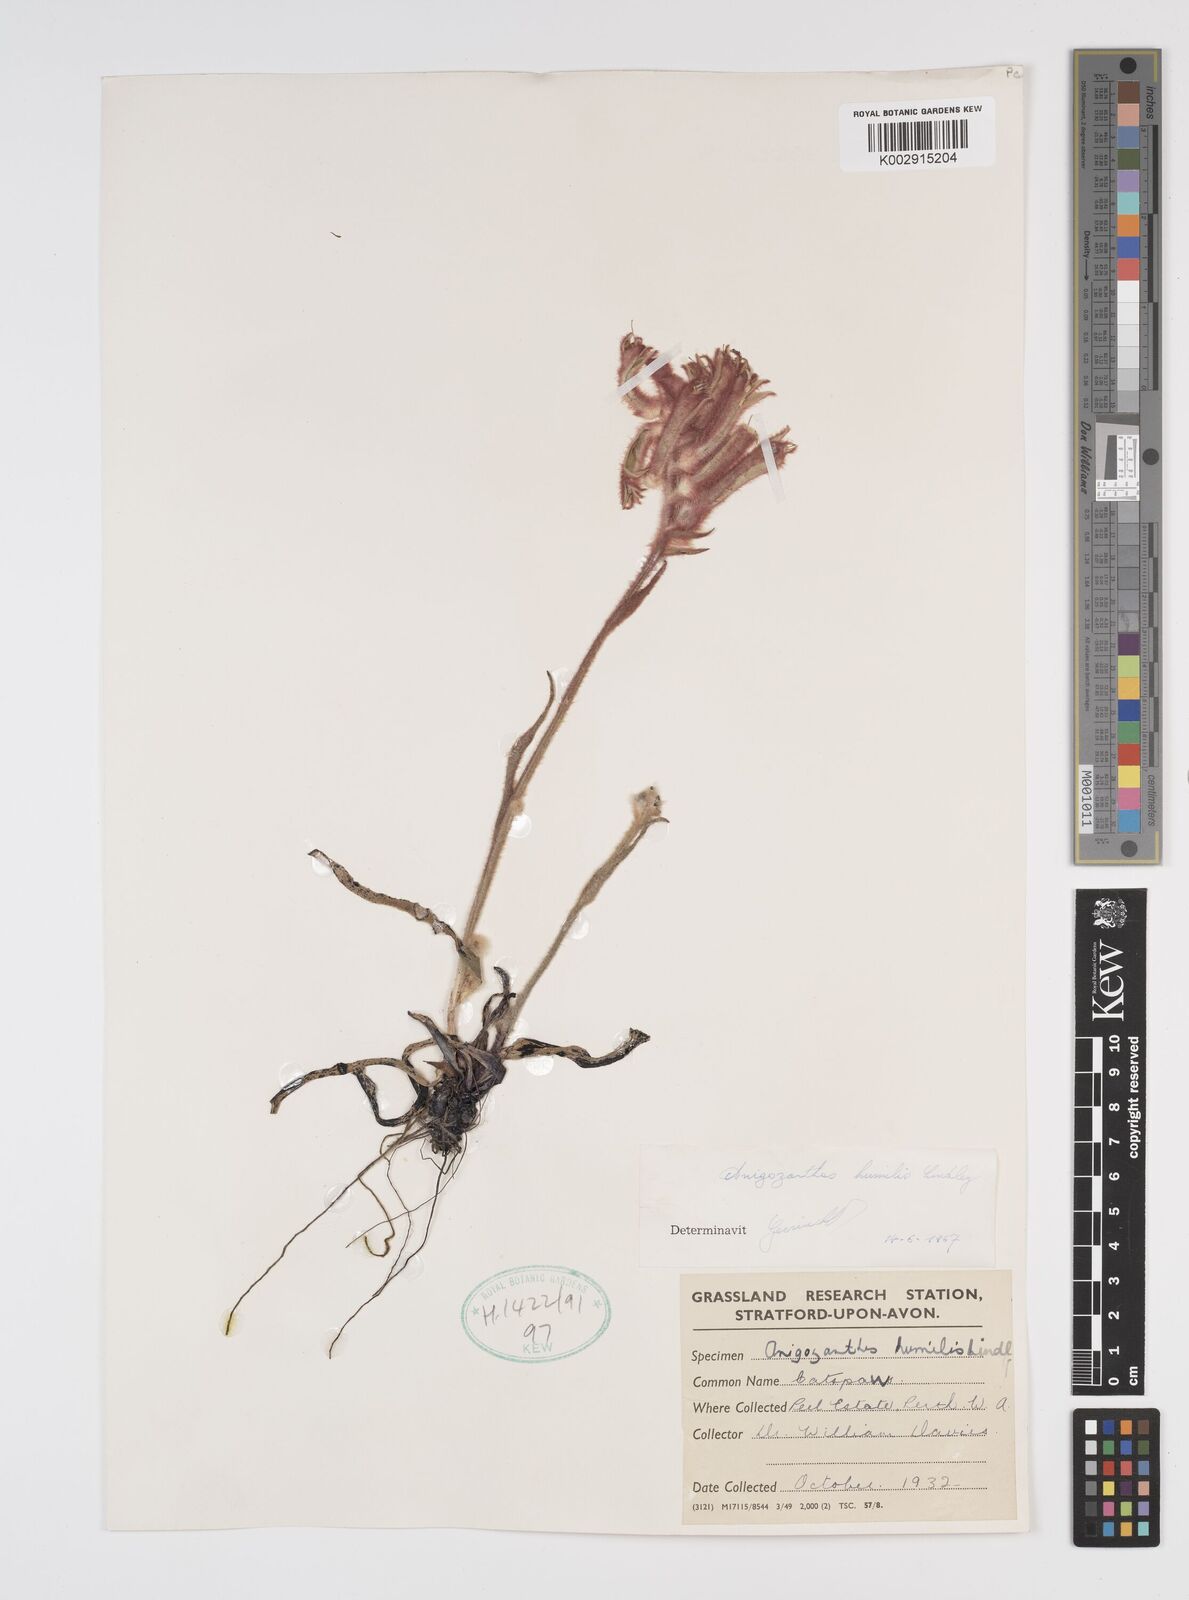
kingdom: Plantae
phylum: Tracheophyta
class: Liliopsida
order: Commelinales
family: Haemodoraceae
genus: Anigozanthos
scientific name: Anigozanthos humilis
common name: Cat's-paw
